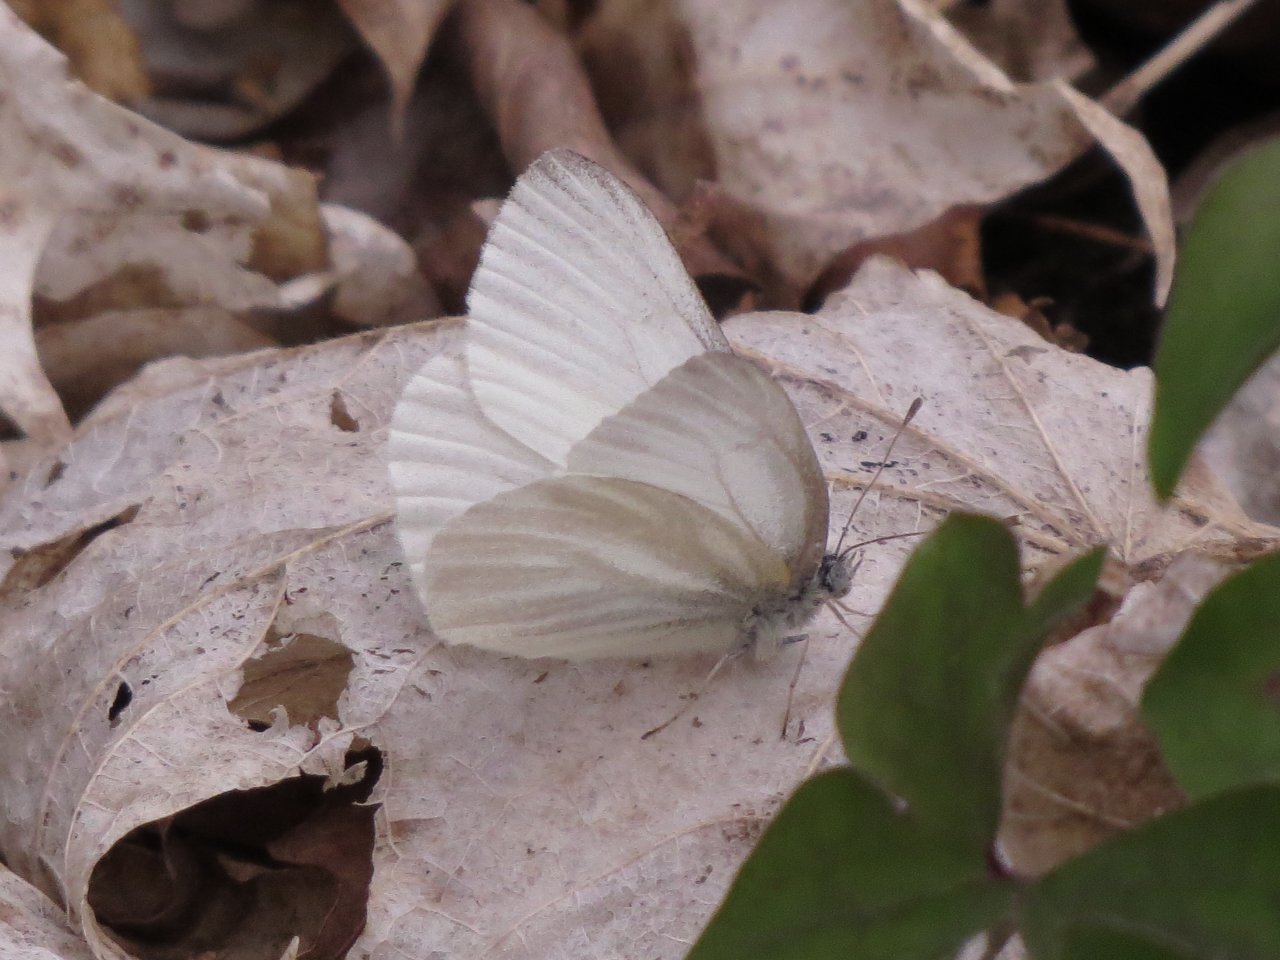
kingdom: Animalia
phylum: Arthropoda
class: Insecta
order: Lepidoptera
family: Pieridae
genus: Pieris
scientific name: Pieris virginiensis
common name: West Virginia White
